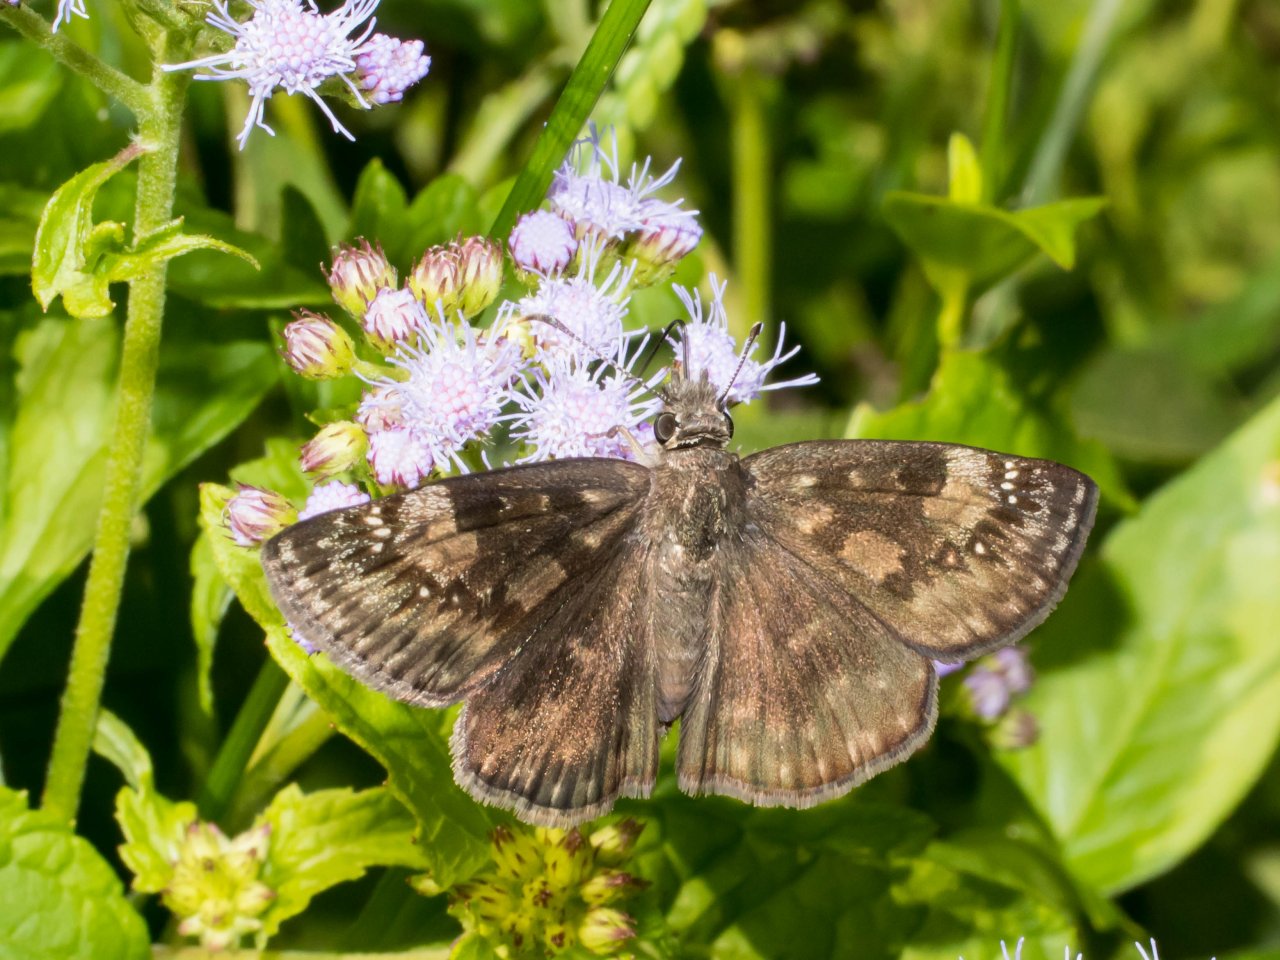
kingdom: Animalia
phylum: Arthropoda
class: Insecta
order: Lepidoptera
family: Hesperiidae
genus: Gesta
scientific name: Gesta
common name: Wild Indigo Duskywing
